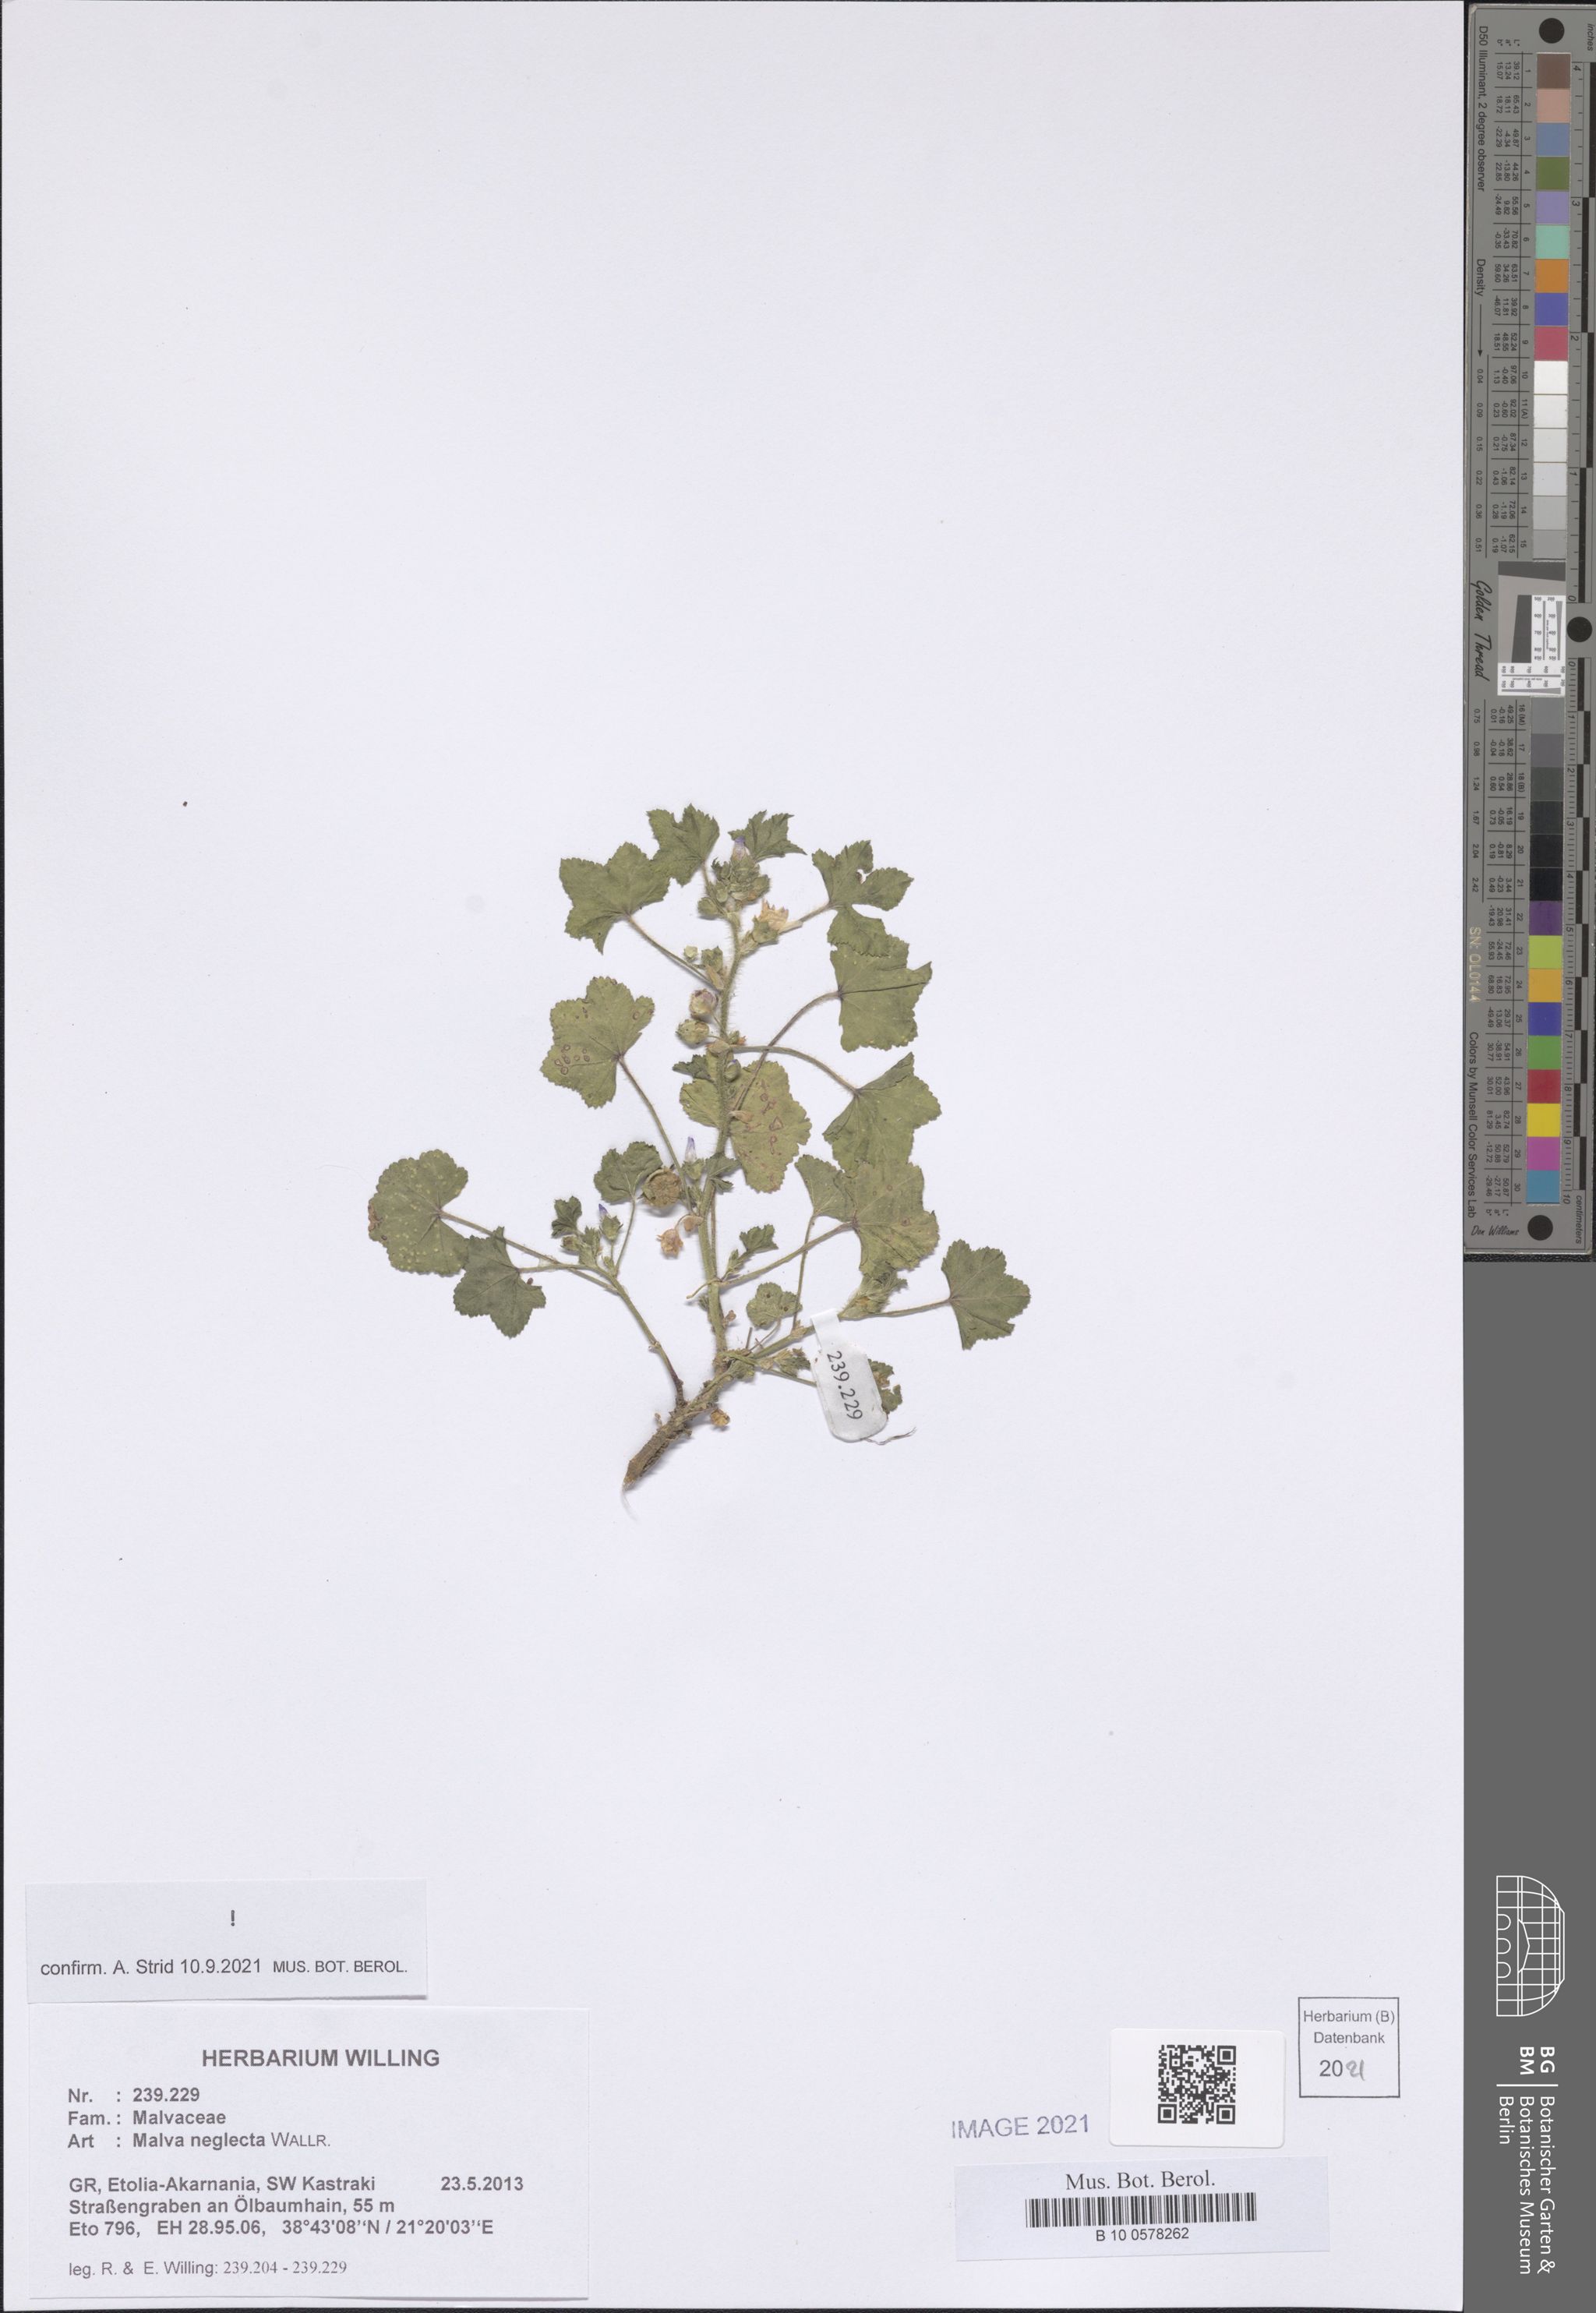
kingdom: Plantae
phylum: Tracheophyta
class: Magnoliopsida
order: Malvales
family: Malvaceae
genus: Malva
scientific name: Malva neglecta
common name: Common mallow
